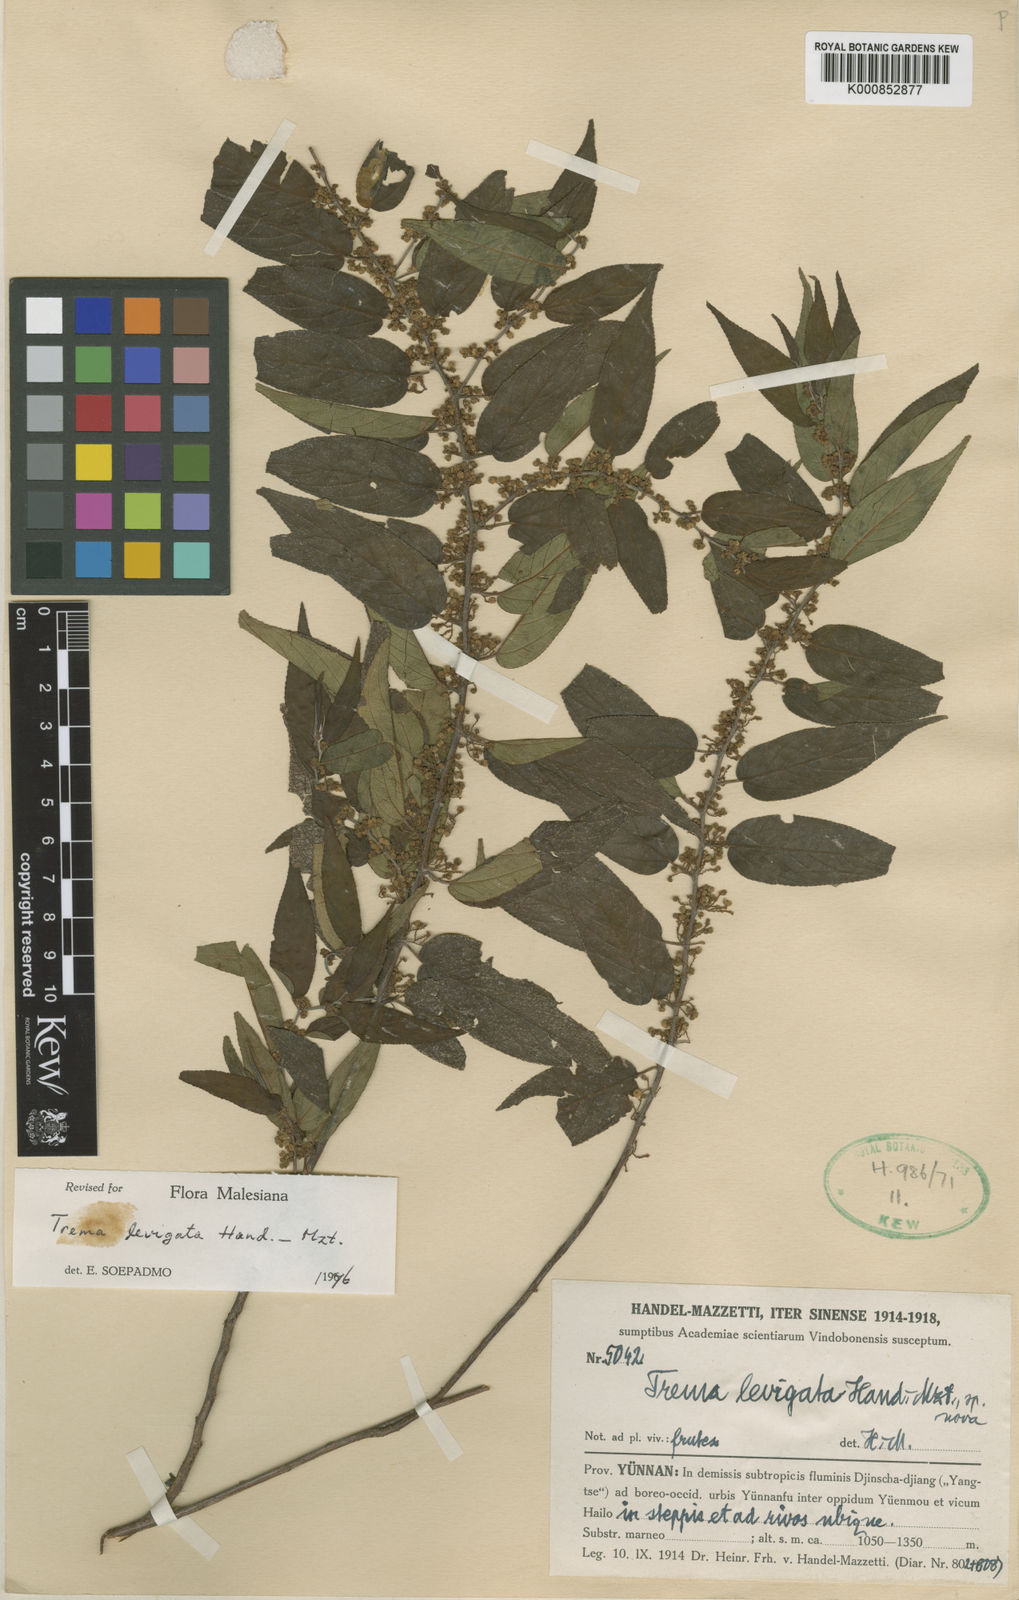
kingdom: Plantae
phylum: Tracheophyta
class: Magnoliopsida
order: Rosales
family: Cannabaceae
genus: Trema
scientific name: Trema levigatum
